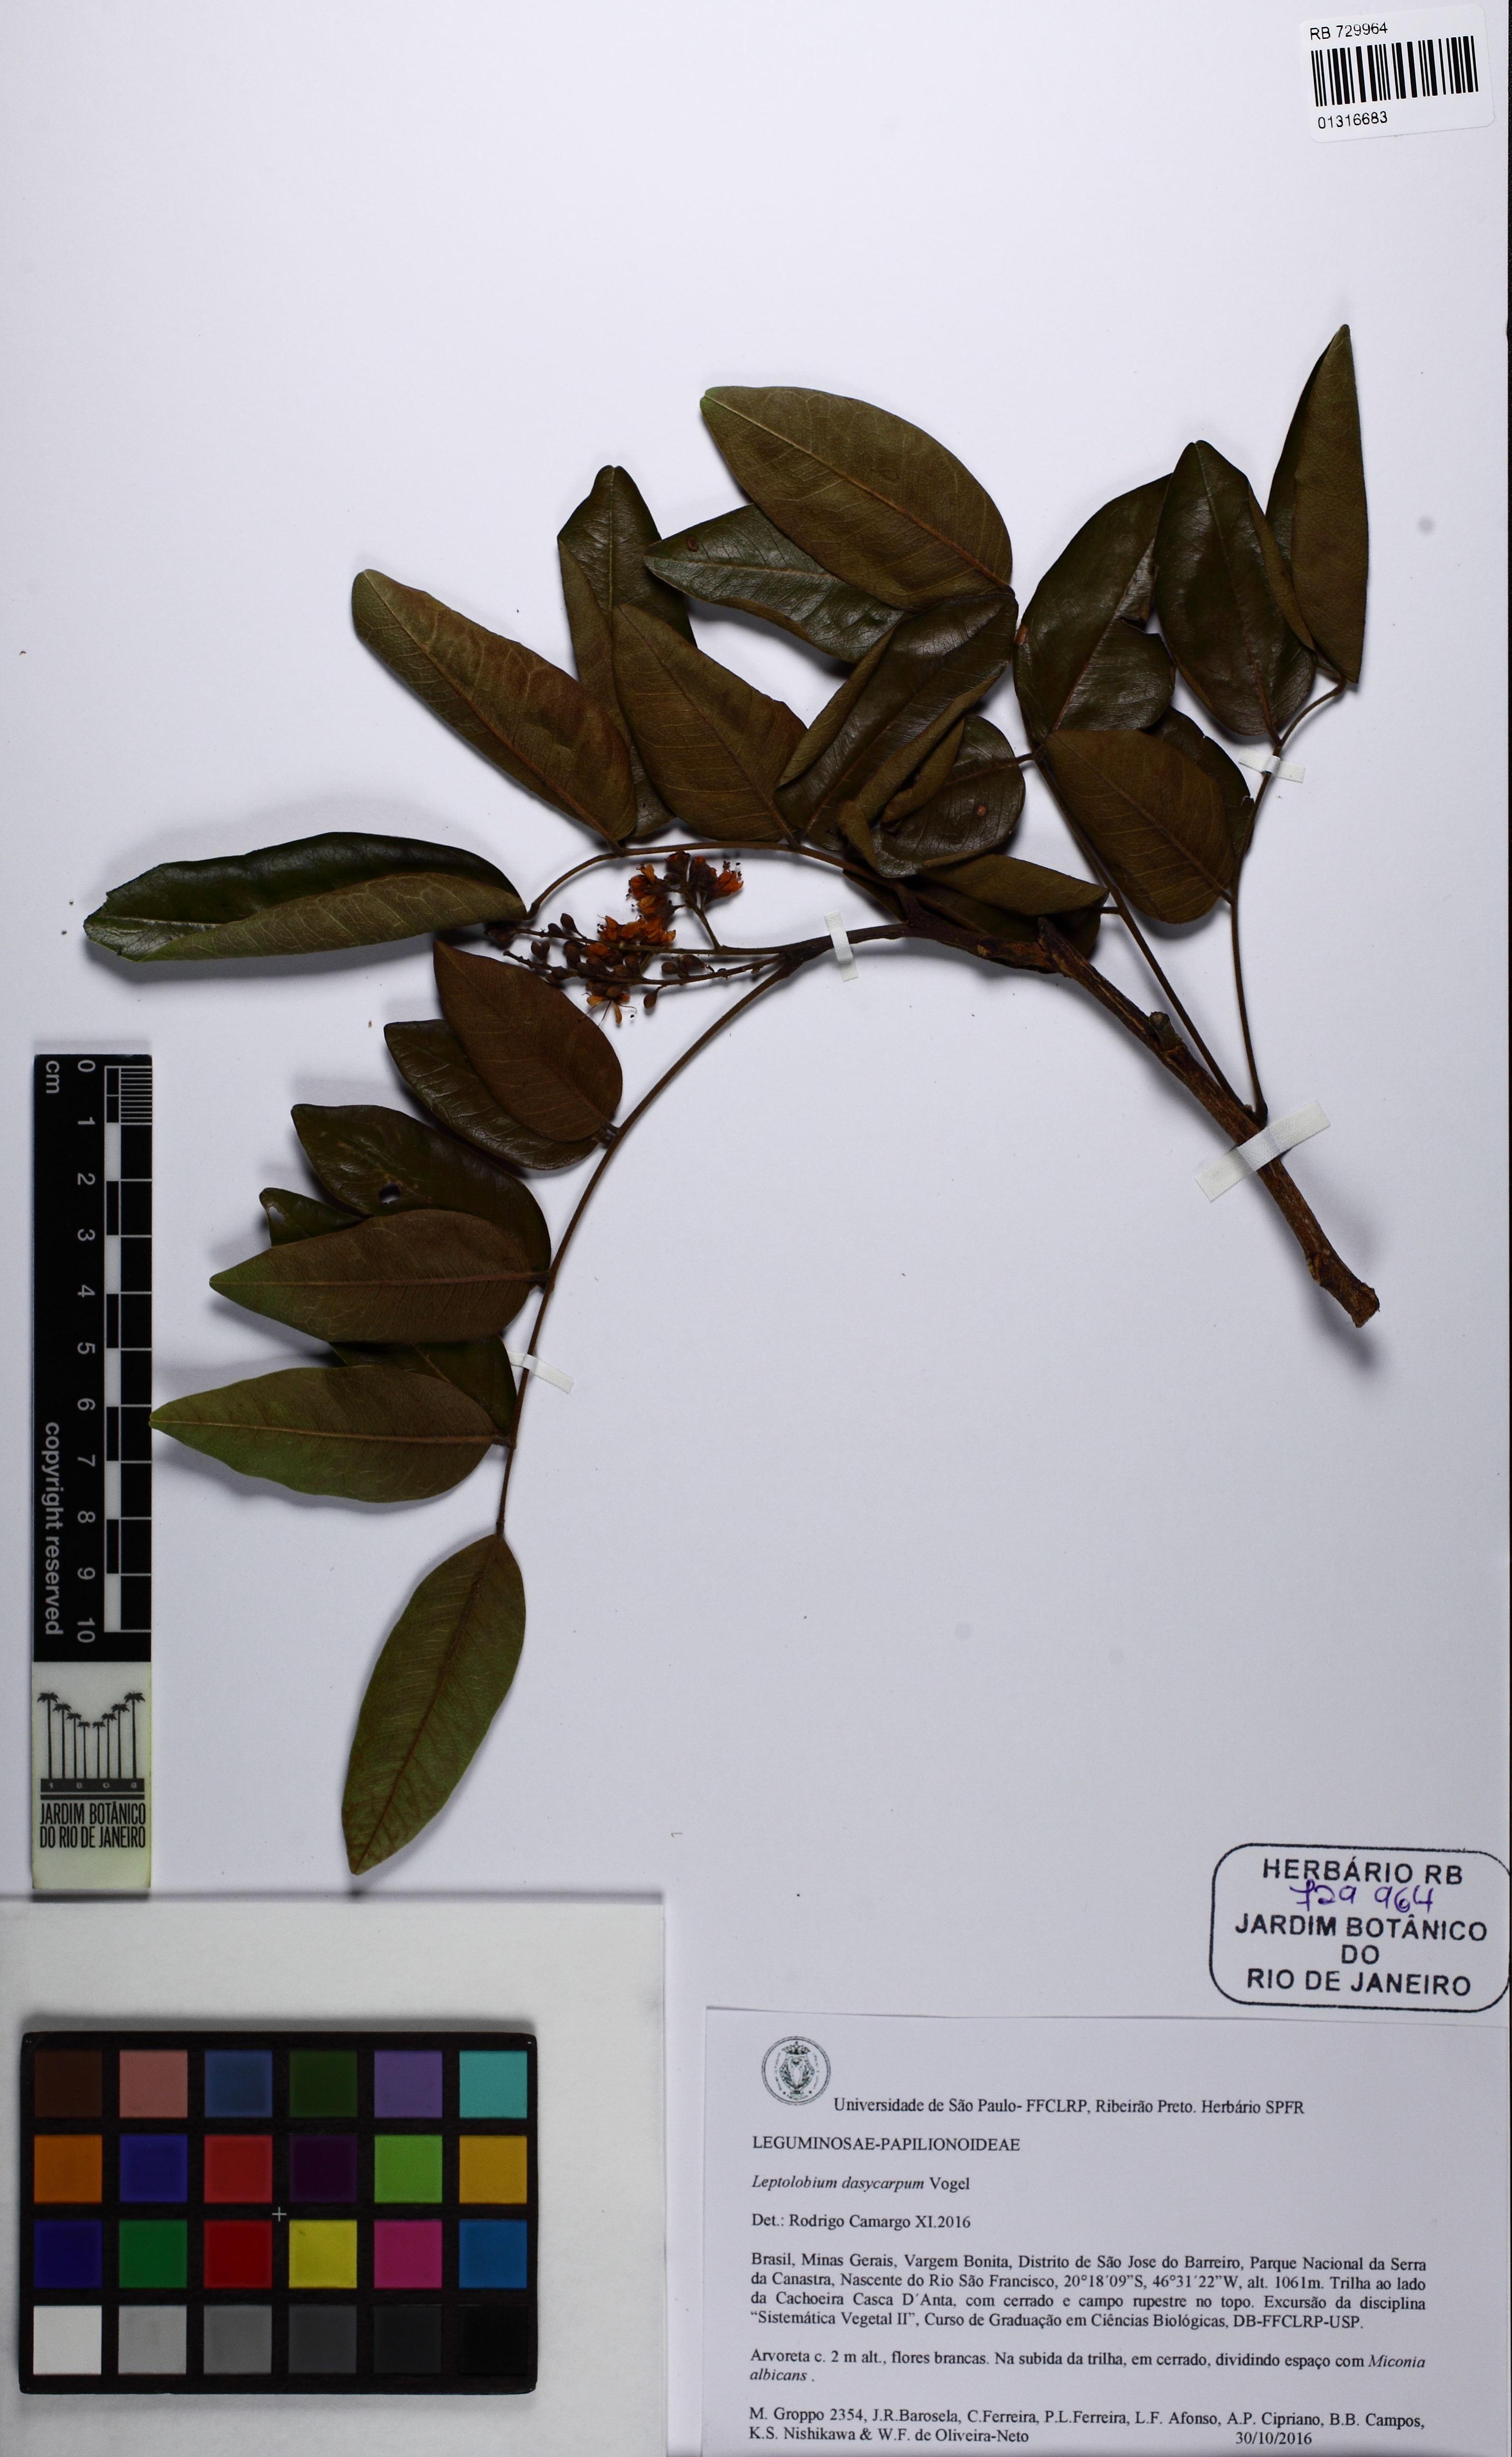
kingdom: Plantae
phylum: Tracheophyta
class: Magnoliopsida
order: Fabales
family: Fabaceae
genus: Leptolobium
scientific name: Leptolobium dasycarpum
